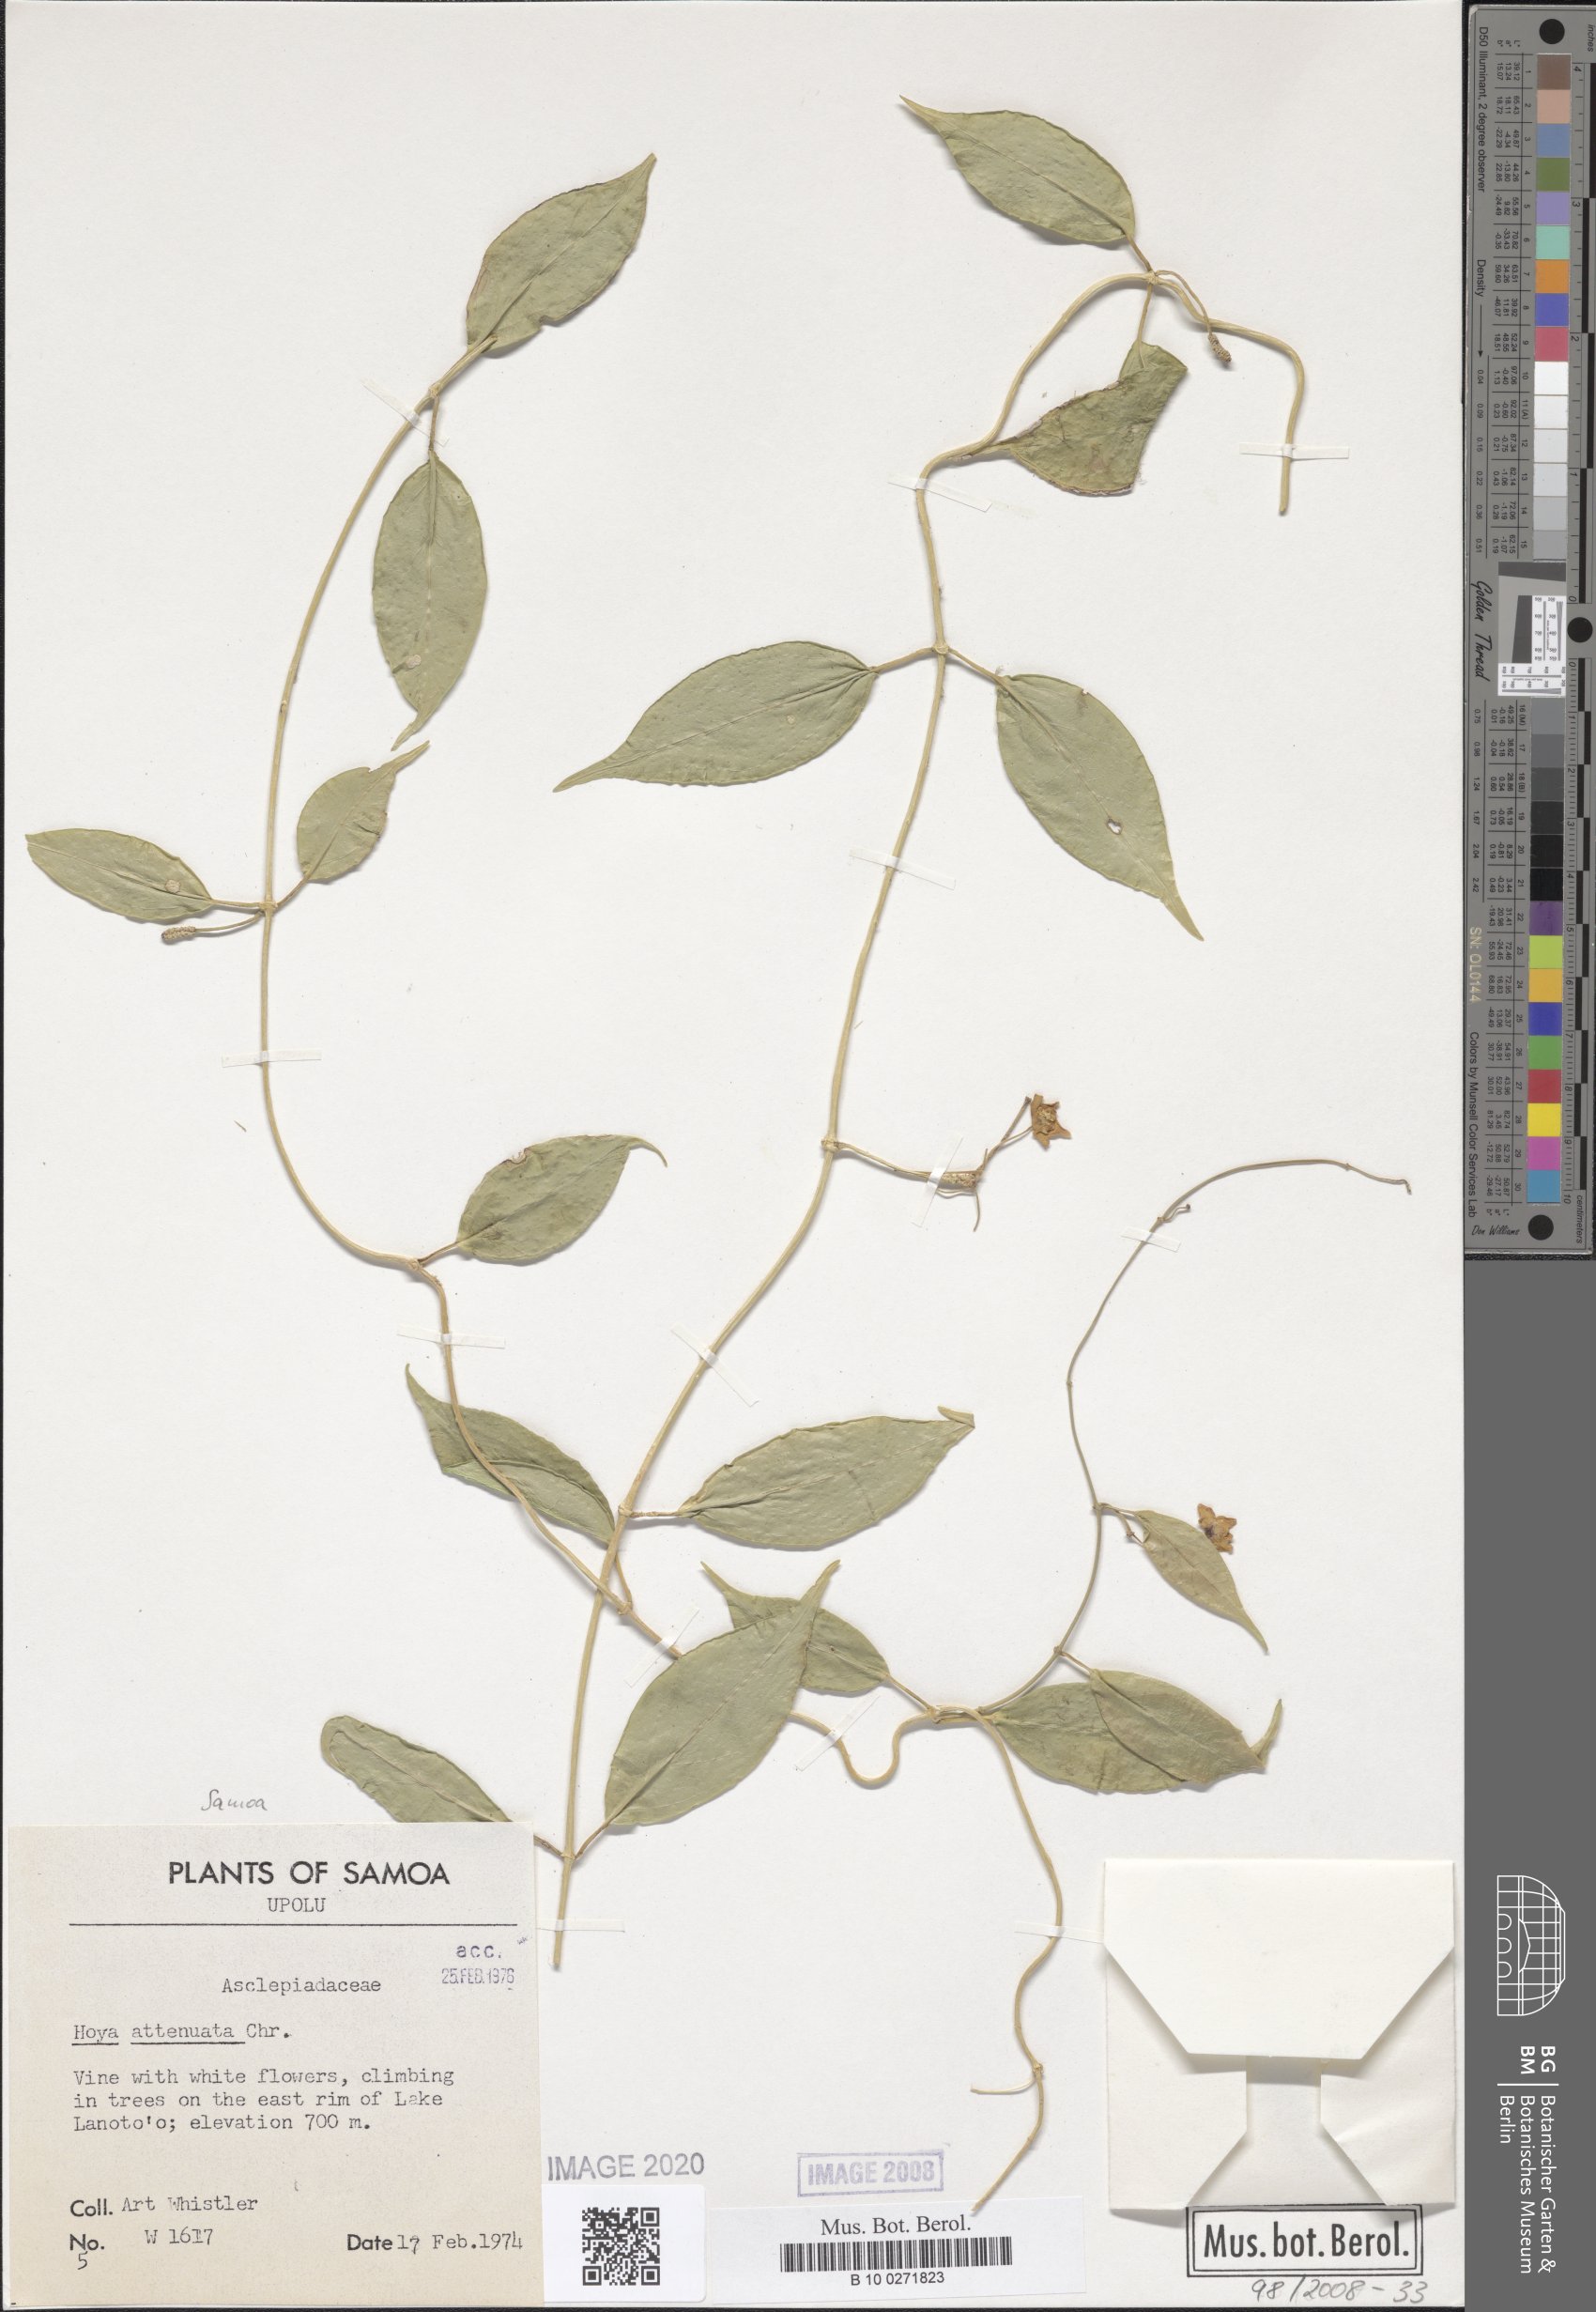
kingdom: Plantae
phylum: Tracheophyta
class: Magnoliopsida
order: Gentianales
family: Apocynaceae
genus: Hoya
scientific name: Hoya filiformis
